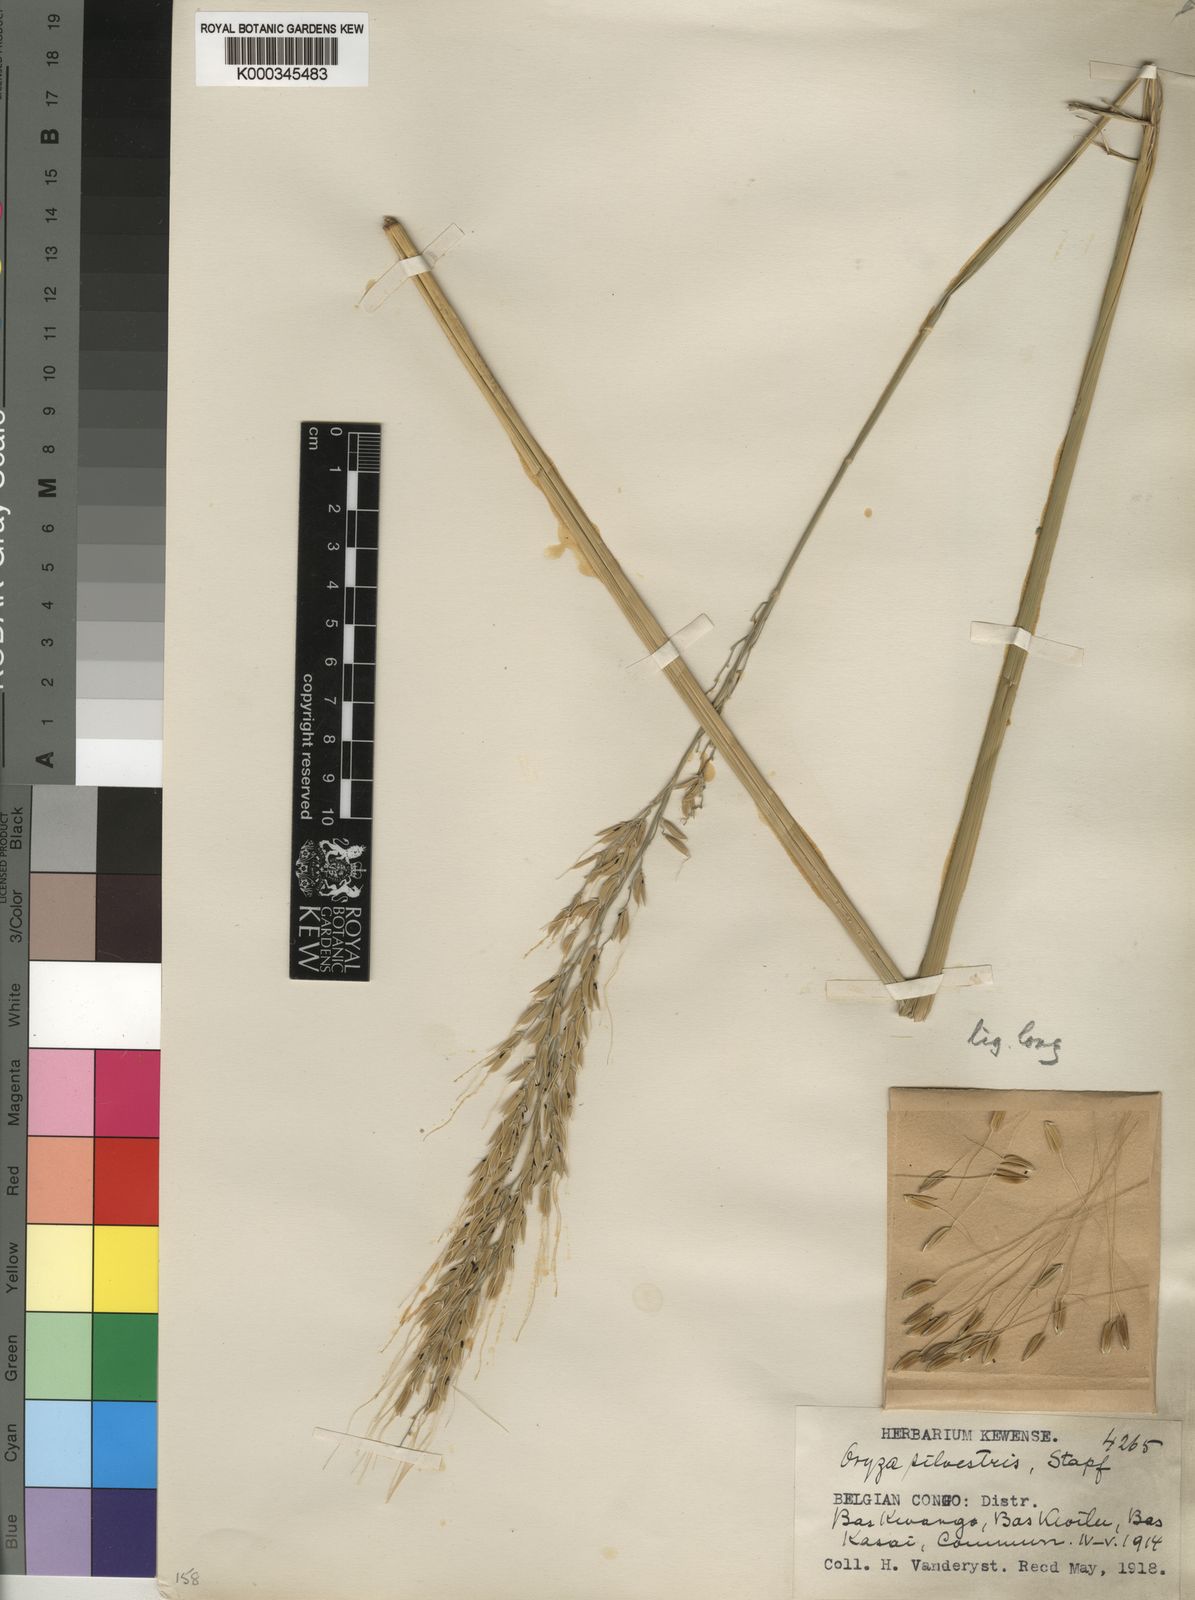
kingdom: Plantae
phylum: Tracheophyta
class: Liliopsida
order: Poales
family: Poaceae
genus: Oryza
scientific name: Oryza longistaminata
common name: Red rice
